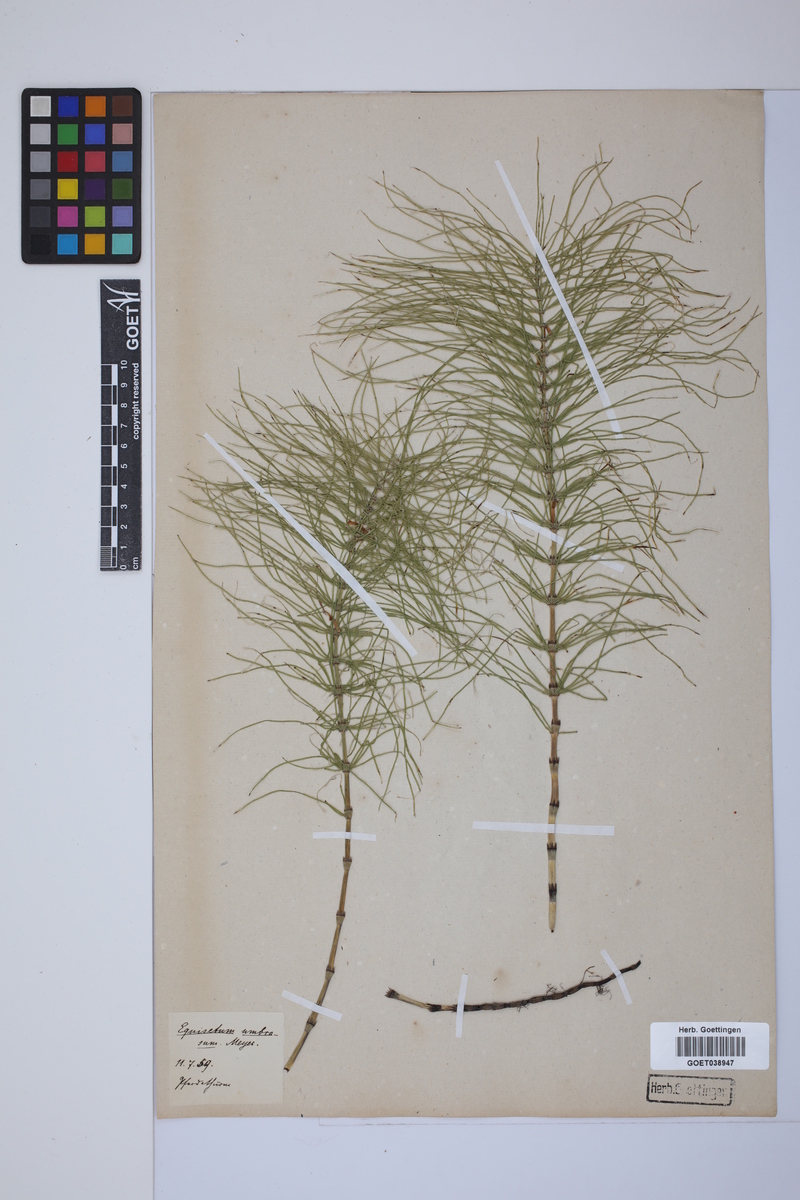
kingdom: Plantae
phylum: Tracheophyta
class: Polypodiopsida
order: Equisetales
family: Equisetaceae
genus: Equisetum
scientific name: Equisetum pratense
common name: Meadow horsetail
